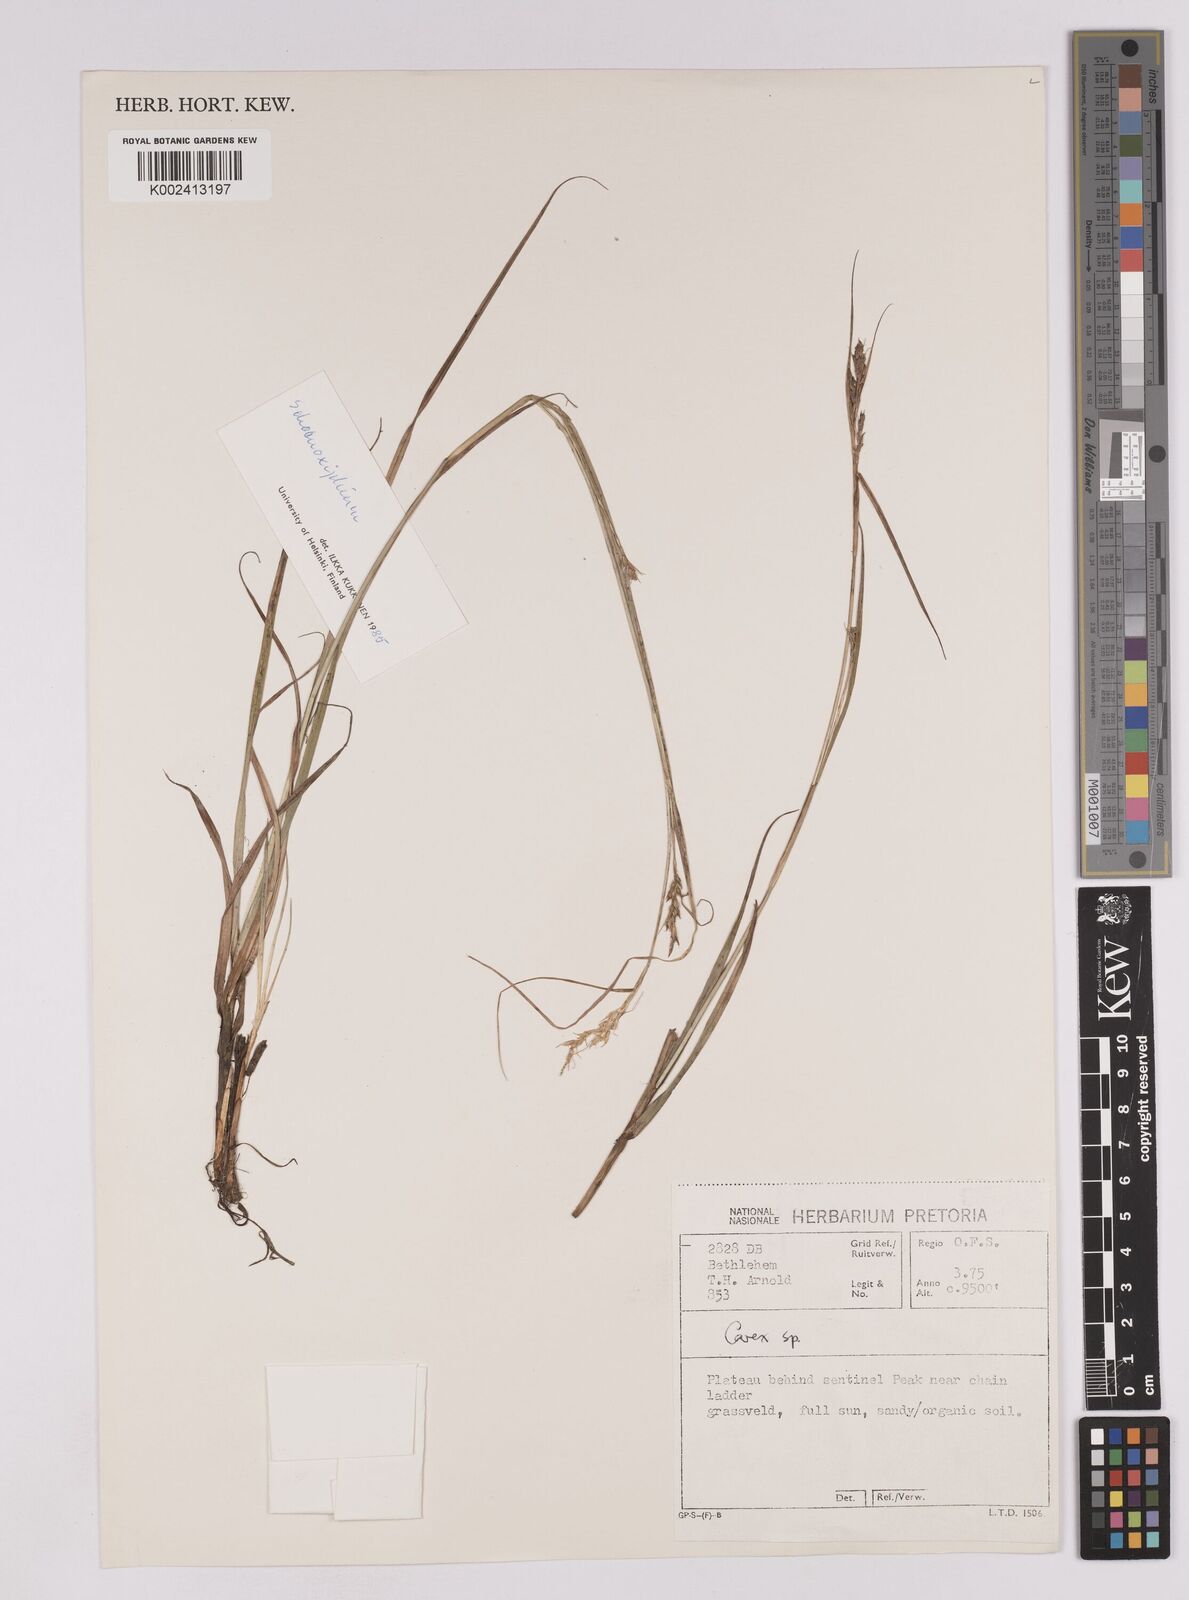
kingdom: Plantae
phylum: Tracheophyta
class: Liliopsida
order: Poales
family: Cyperaceae
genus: Carex
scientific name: Carex spartea
